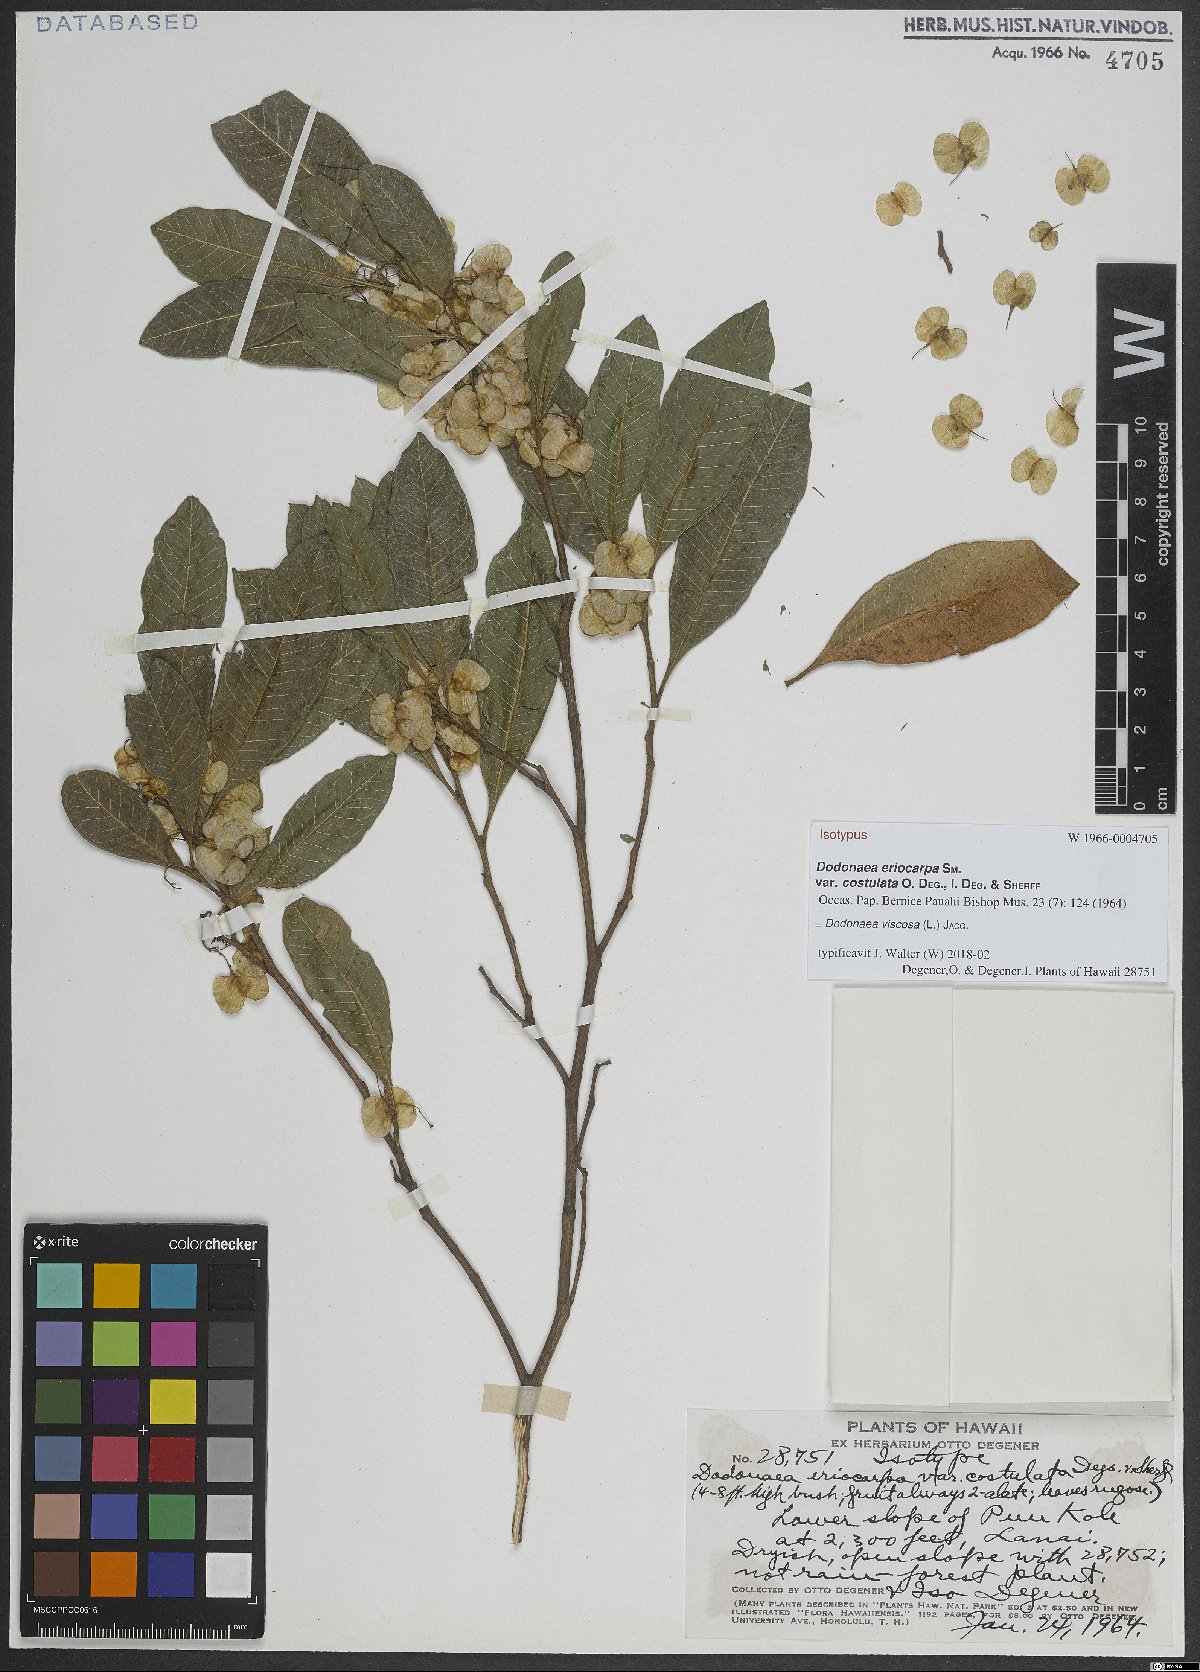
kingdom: Plantae
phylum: Tracheophyta
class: Magnoliopsida
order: Sapindales
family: Sapindaceae
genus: Dodonaea
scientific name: Dodonaea viscosa
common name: Hopbush
